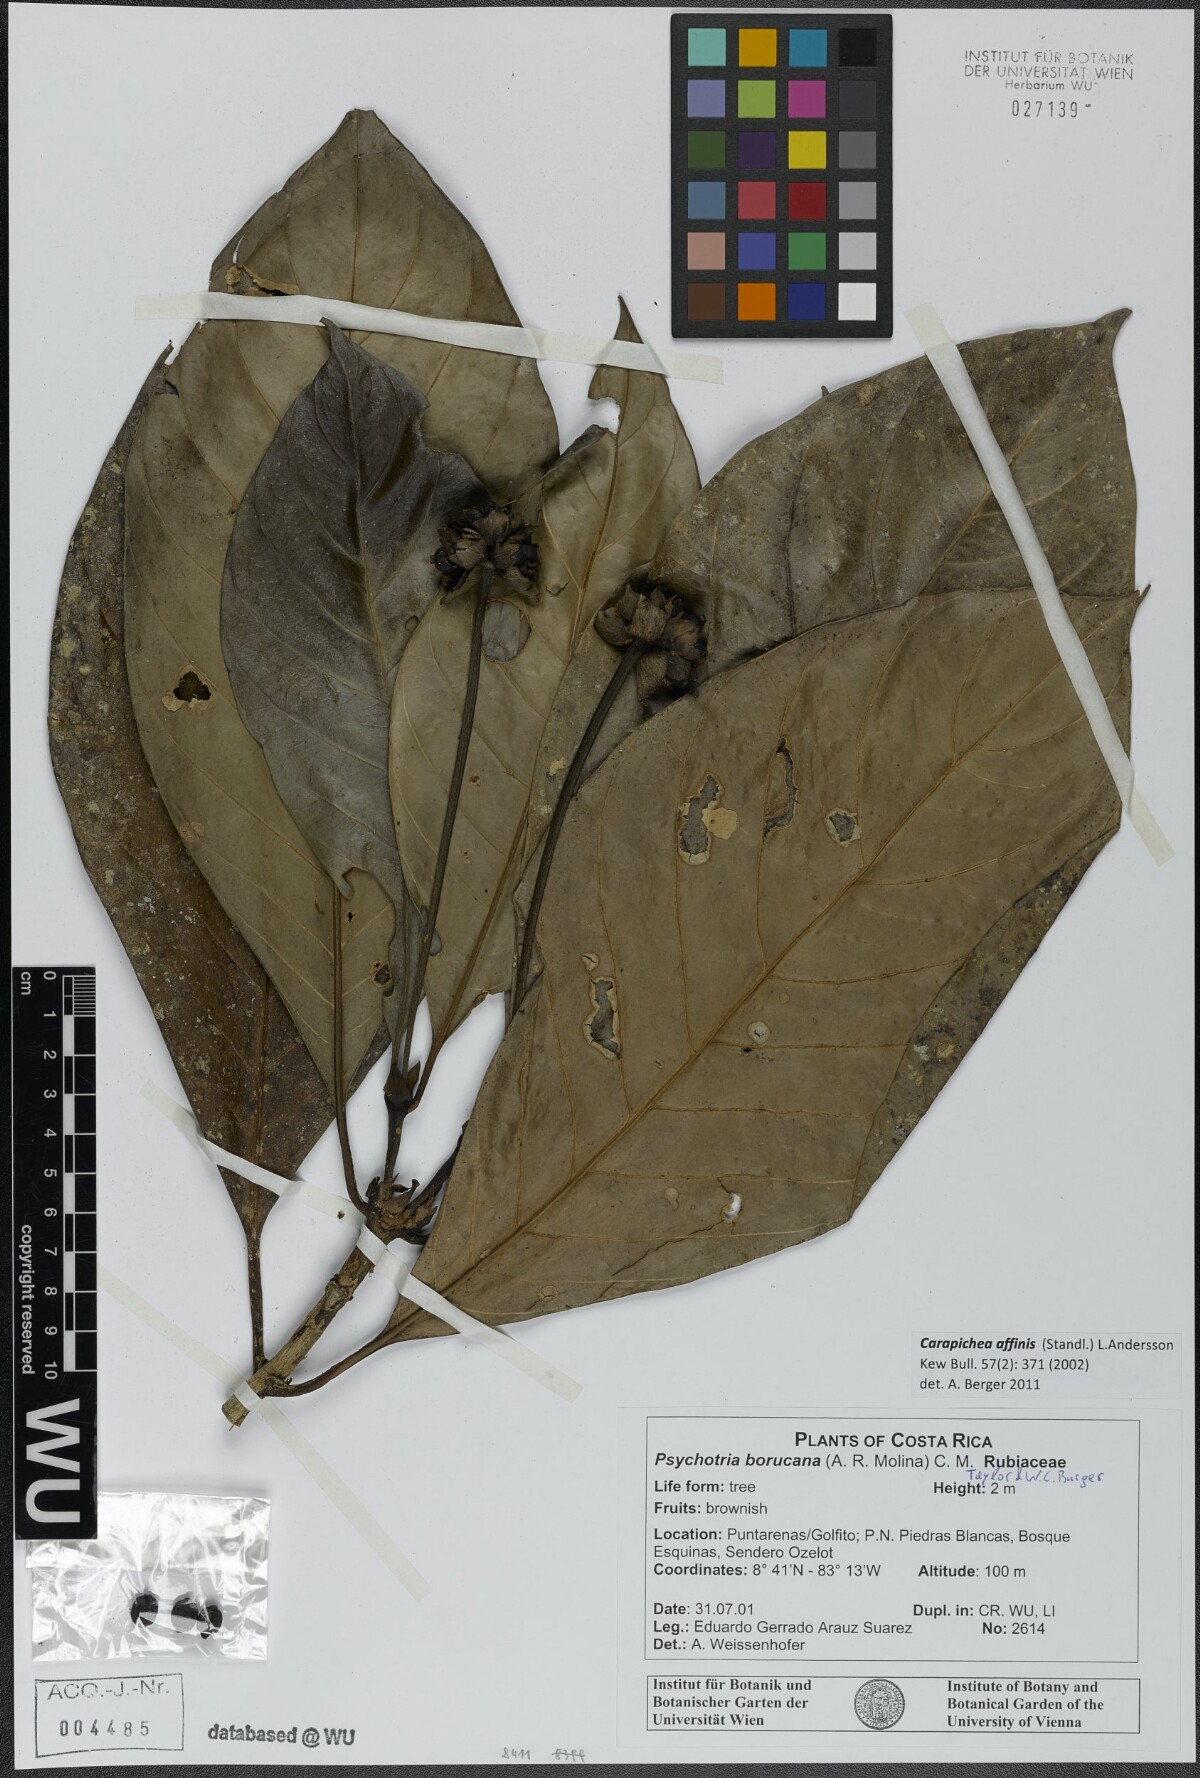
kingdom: Plantae
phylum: Tracheophyta
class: Magnoliopsida
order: Gentianales
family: Rubiaceae
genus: Carapichea
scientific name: Carapichea affinis
